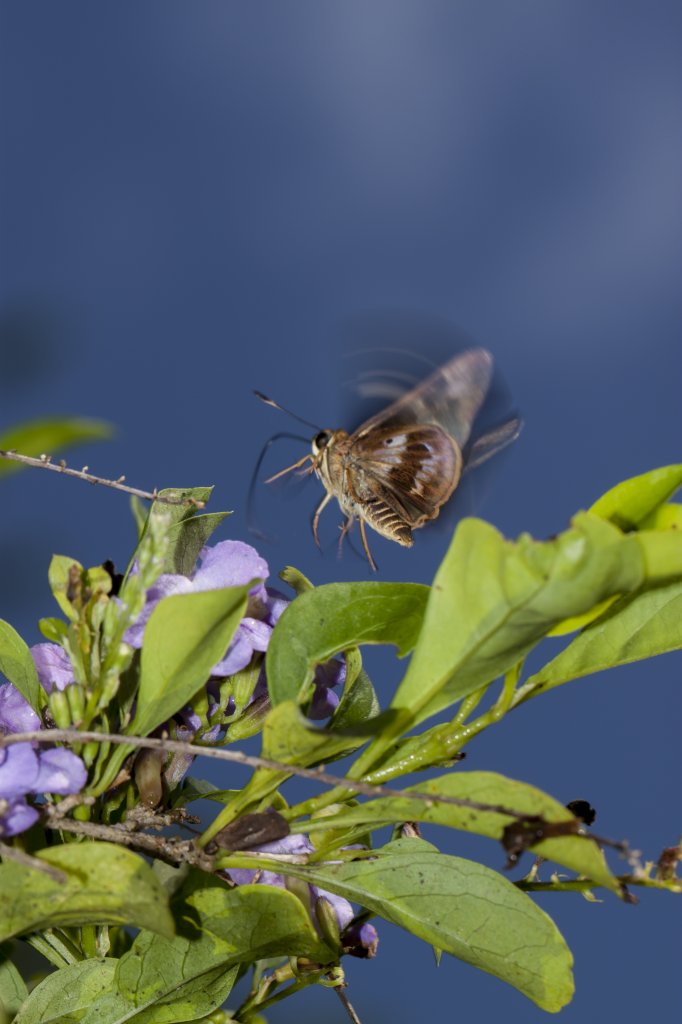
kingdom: Animalia
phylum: Arthropoda
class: Insecta
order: Lepidoptera
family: Hesperiidae
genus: Nyctelius
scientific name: Nyctelius nyctelius
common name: Violet-banded Skipper
